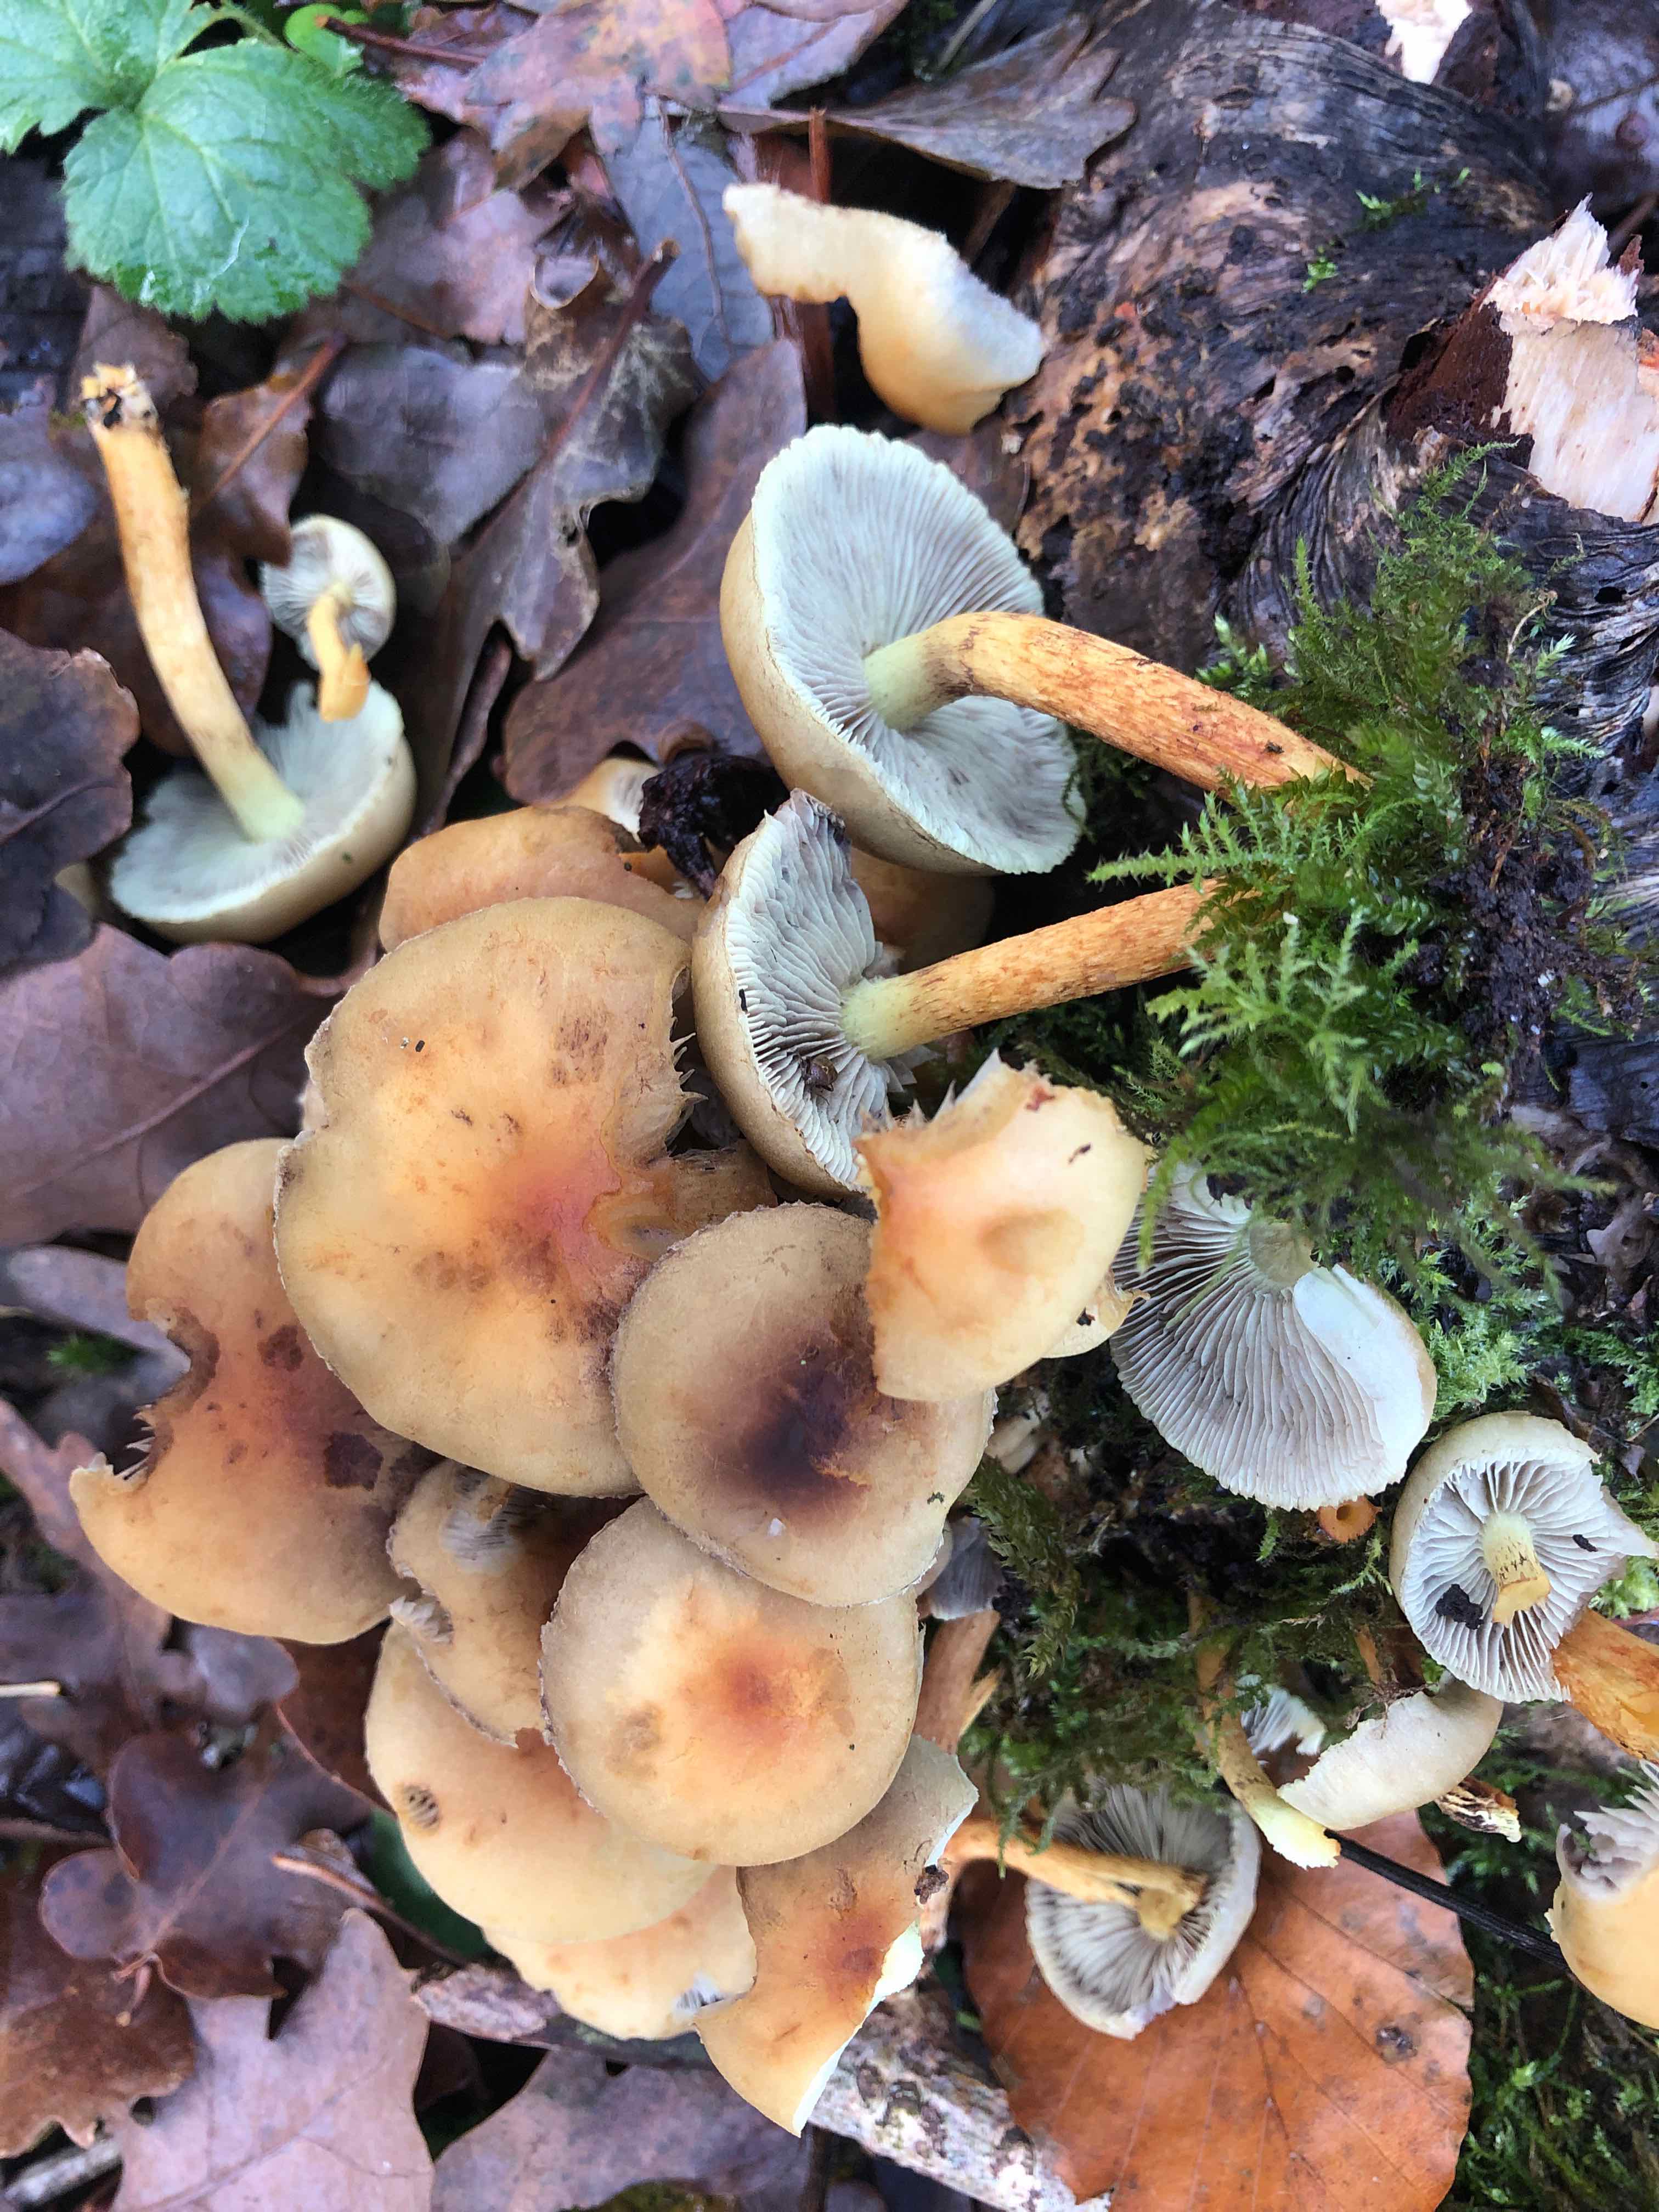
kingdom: Fungi
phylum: Basidiomycota
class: Agaricomycetes
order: Agaricales
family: Strophariaceae
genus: Hypholoma
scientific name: Hypholoma fasciculare
